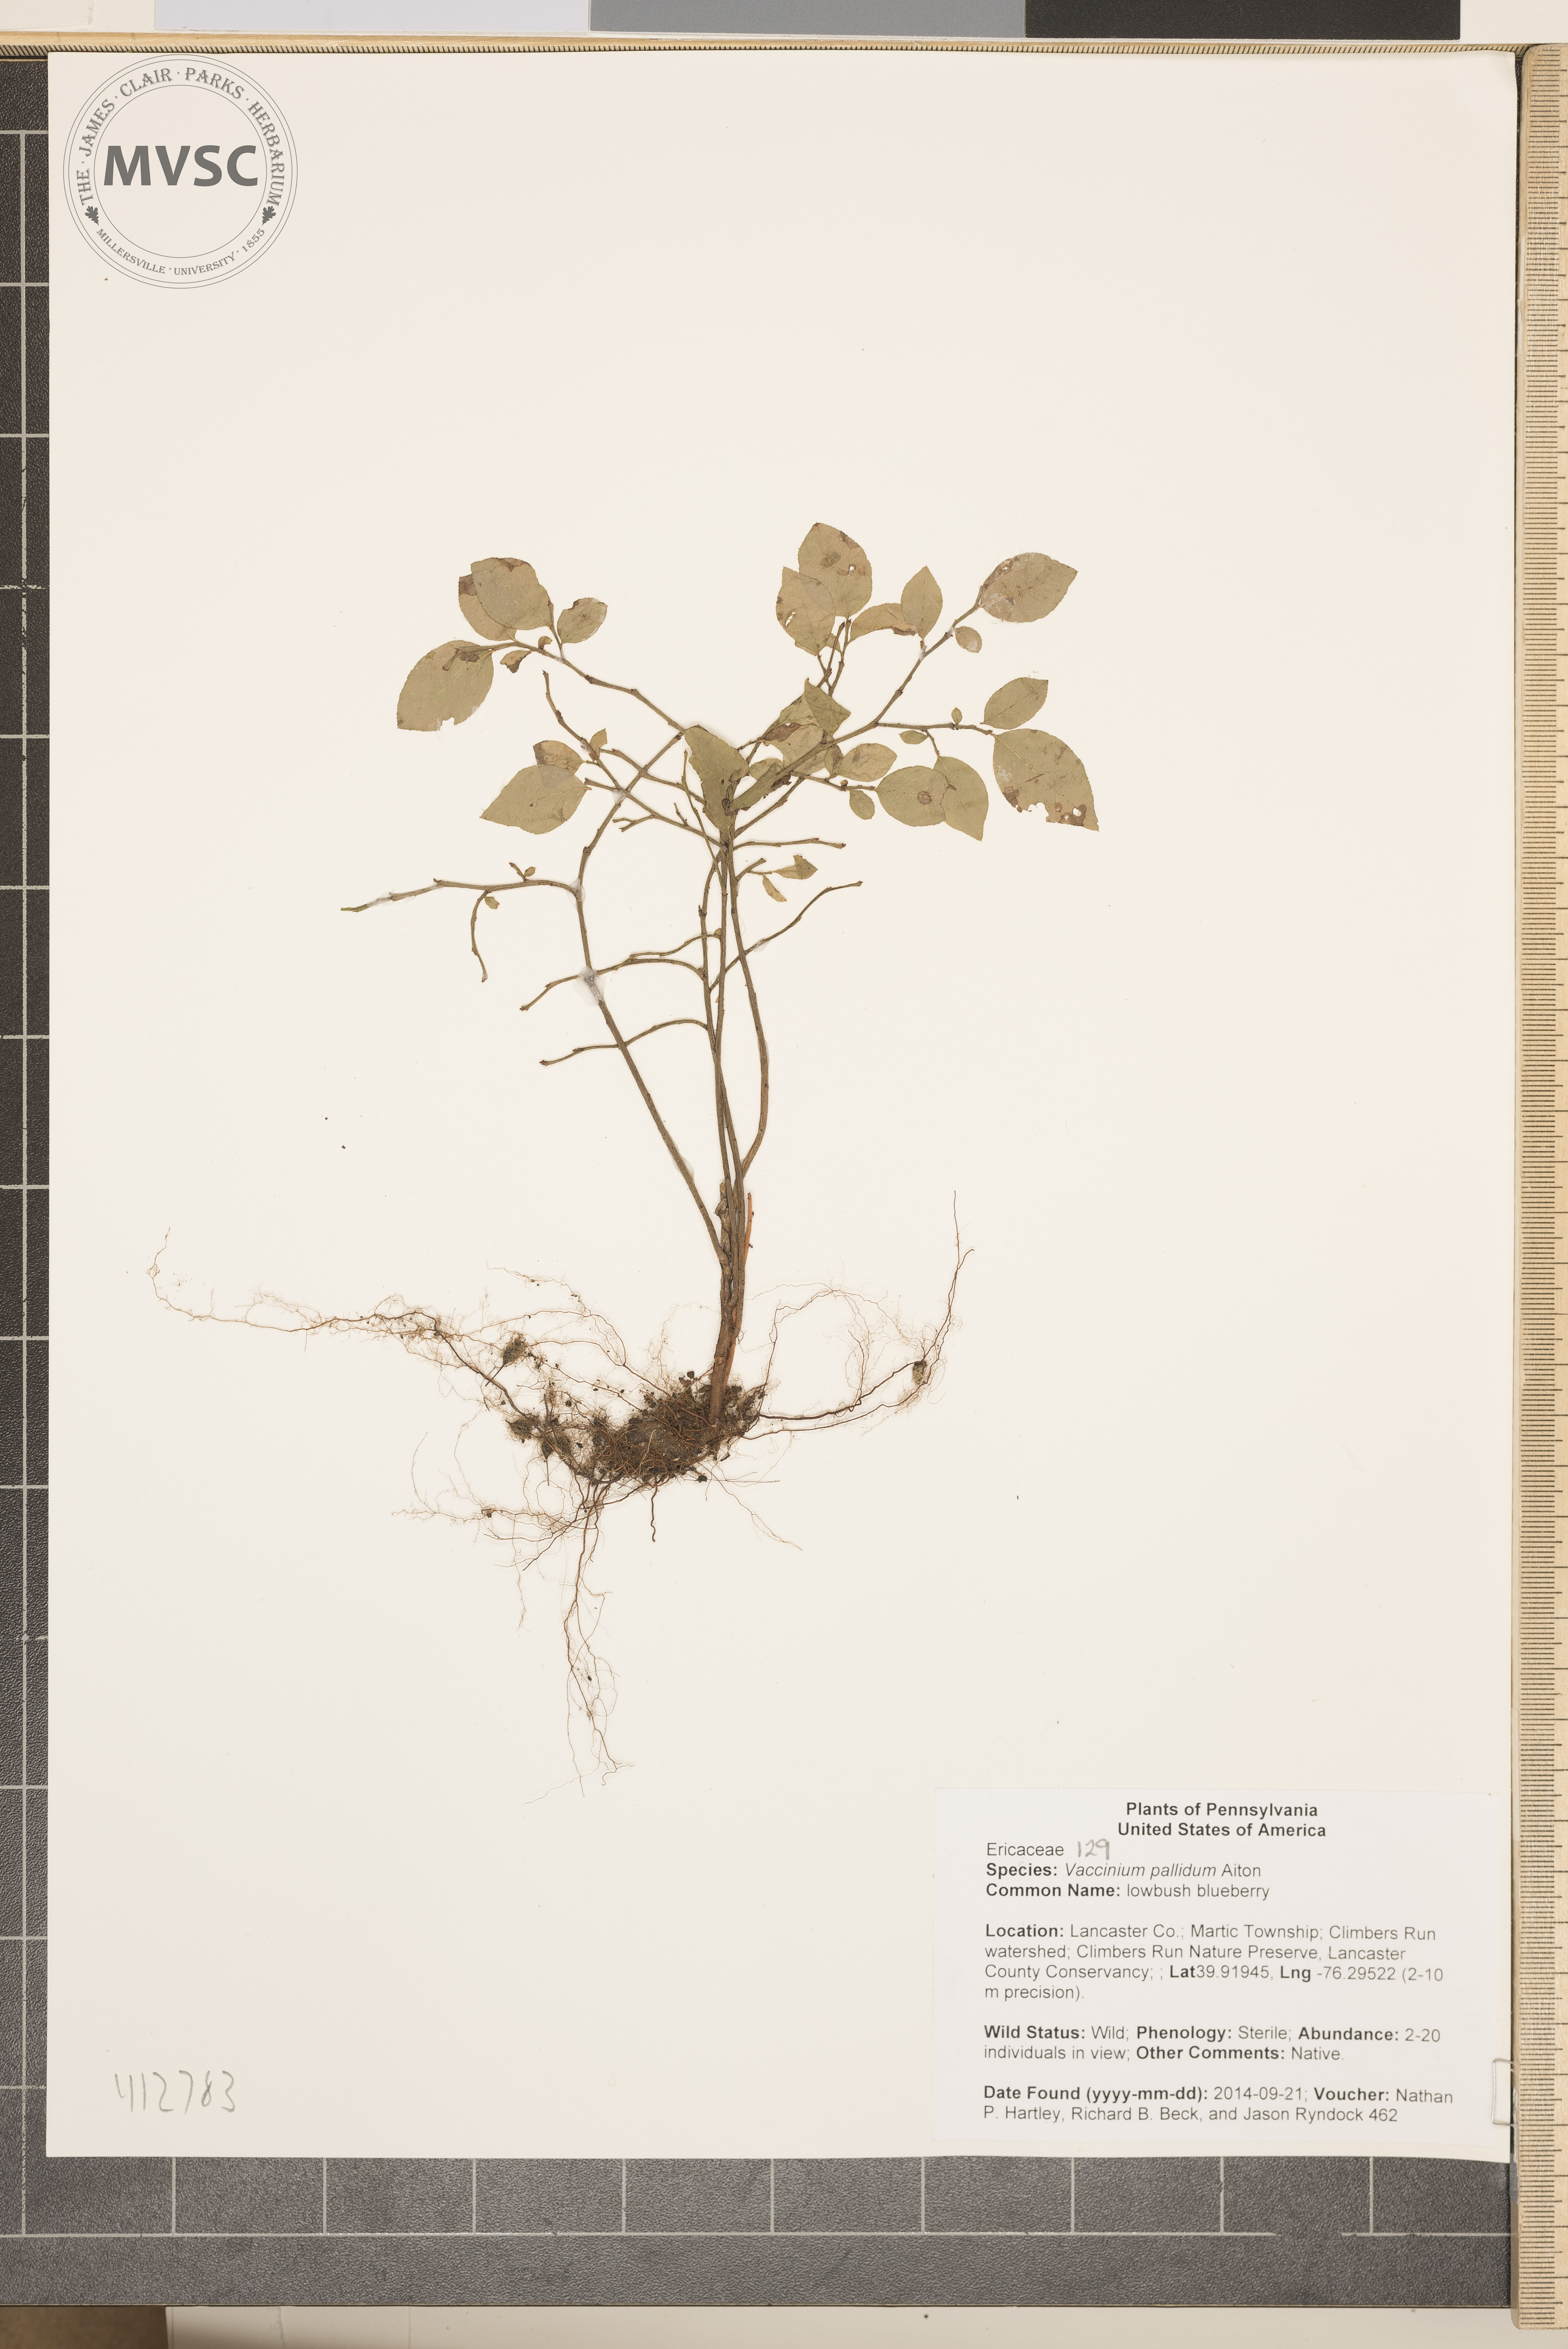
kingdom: Plantae
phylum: Tracheophyta
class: Magnoliopsida
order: Ericales
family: Ericaceae
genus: Vaccinium
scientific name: Vaccinium pallidum
